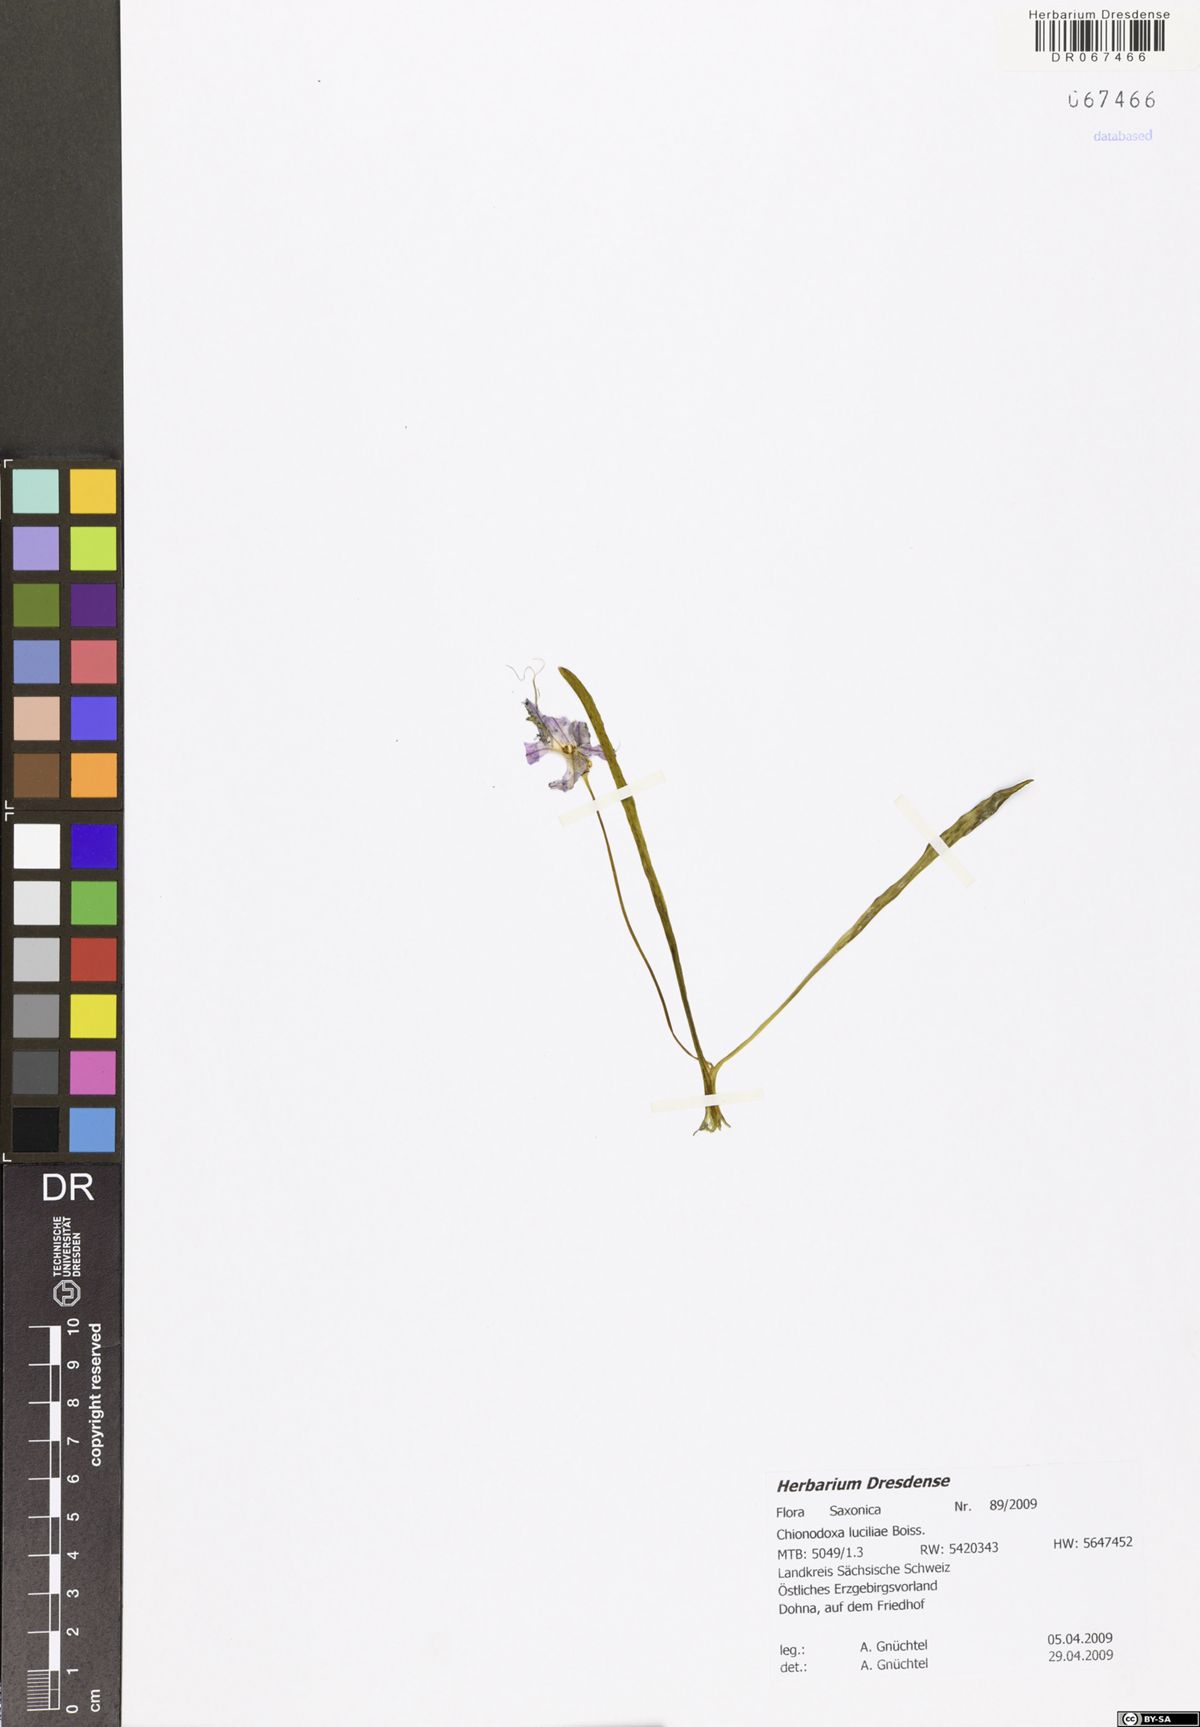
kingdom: Plantae
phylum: Tracheophyta
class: Liliopsida
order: Asparagales
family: Asparagaceae
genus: Scilla
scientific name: Scilla luciliae
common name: Boissier's glory-of-the-snow
